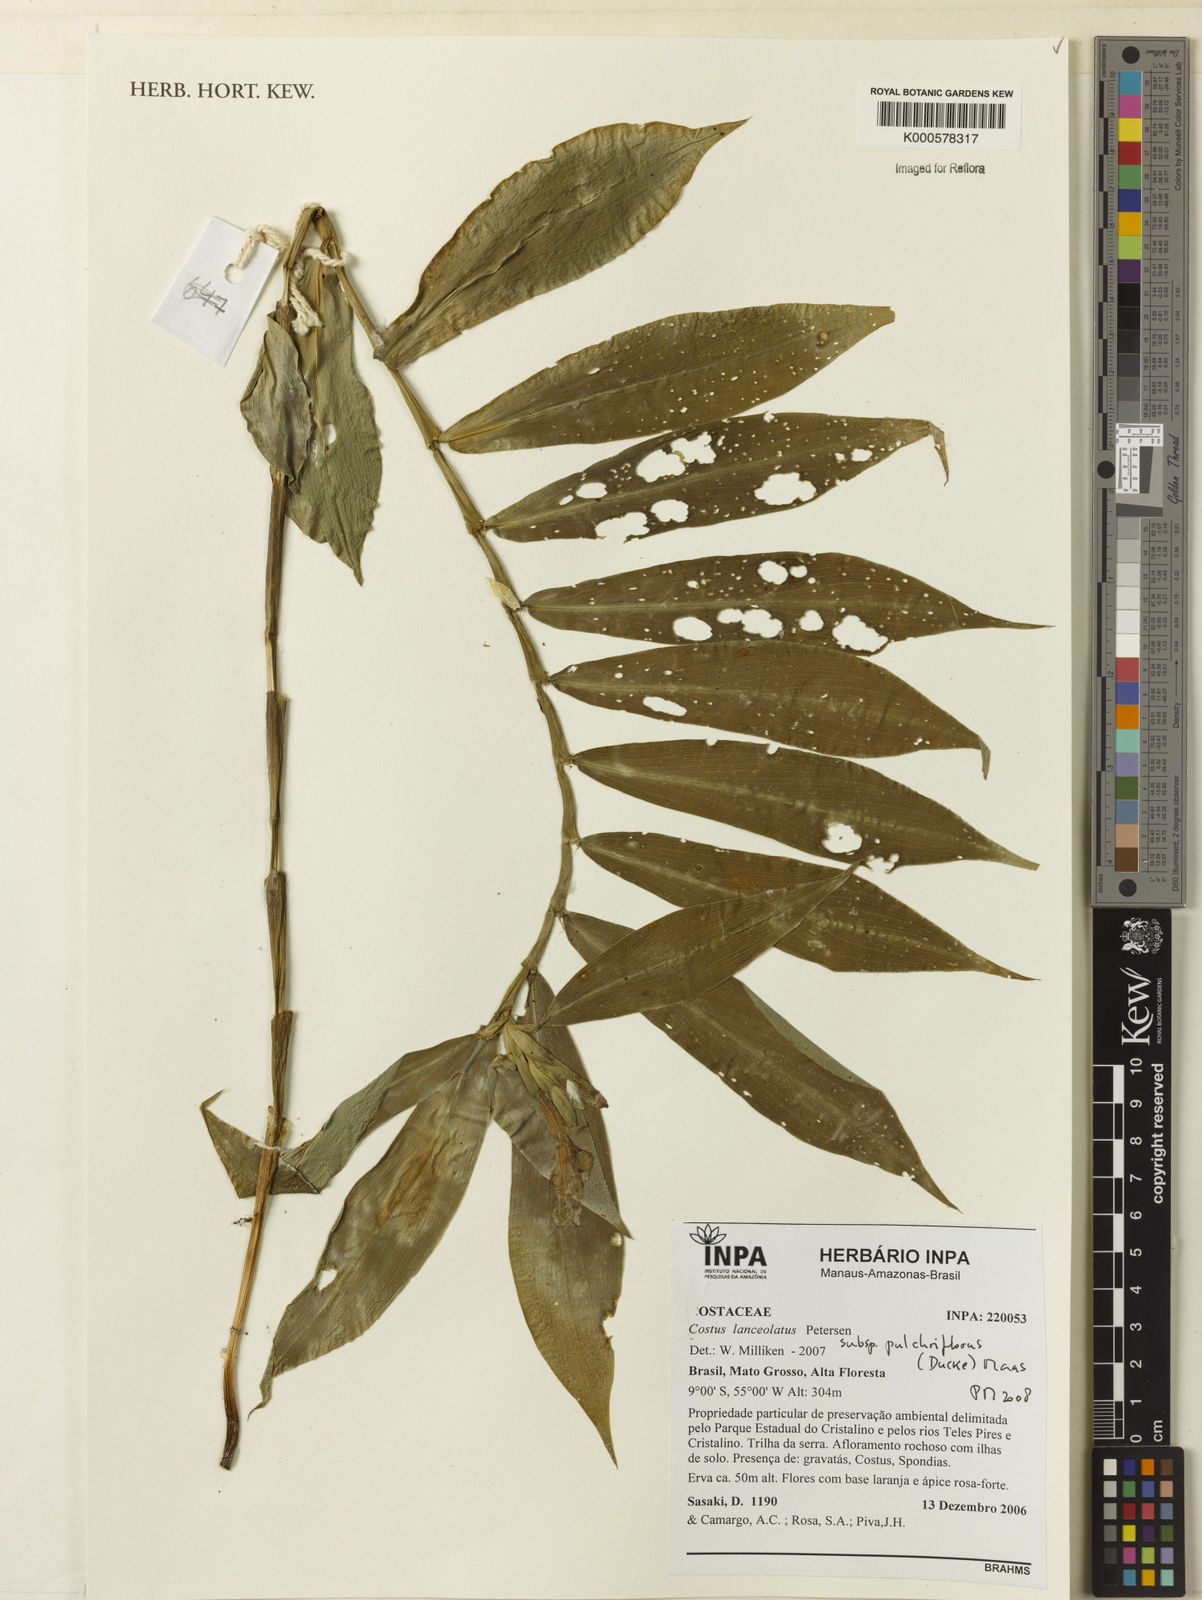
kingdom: Plantae
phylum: Tracheophyta
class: Liliopsida
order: Zingiberales
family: Costaceae
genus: Chamaecostus
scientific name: Chamaecostus lanceolatus
